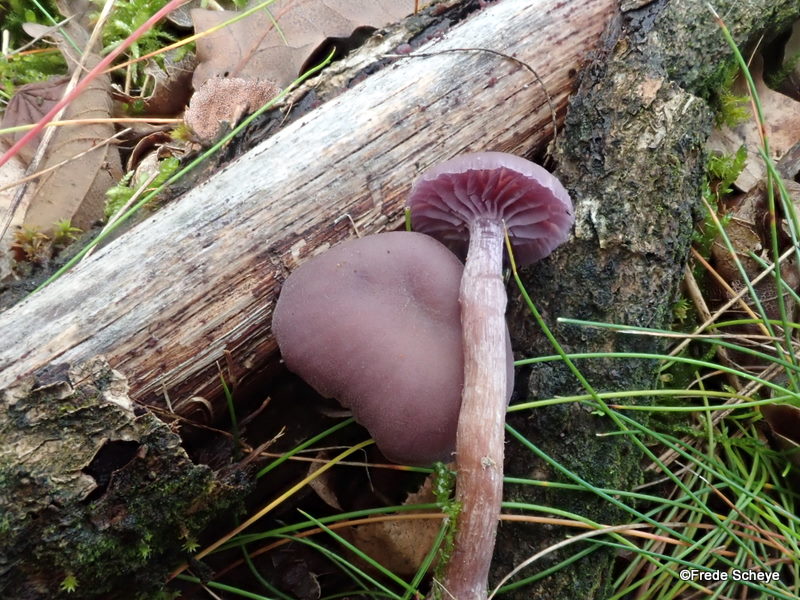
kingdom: Fungi
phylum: Basidiomycota
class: Agaricomycetes
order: Agaricales
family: Hydnangiaceae
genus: Laccaria
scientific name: Laccaria amethystina
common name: violet ametysthat
